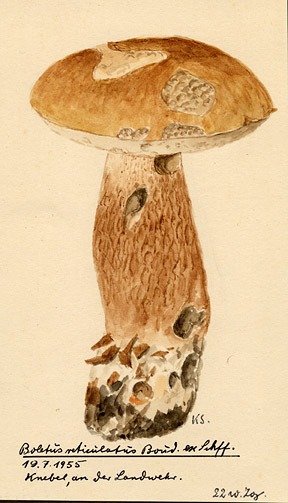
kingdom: Fungi
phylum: Basidiomycota
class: Agaricomycetes
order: Boletales
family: Boletaceae
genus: Boletus
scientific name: Boletus reticulatus
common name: Summer bolete
